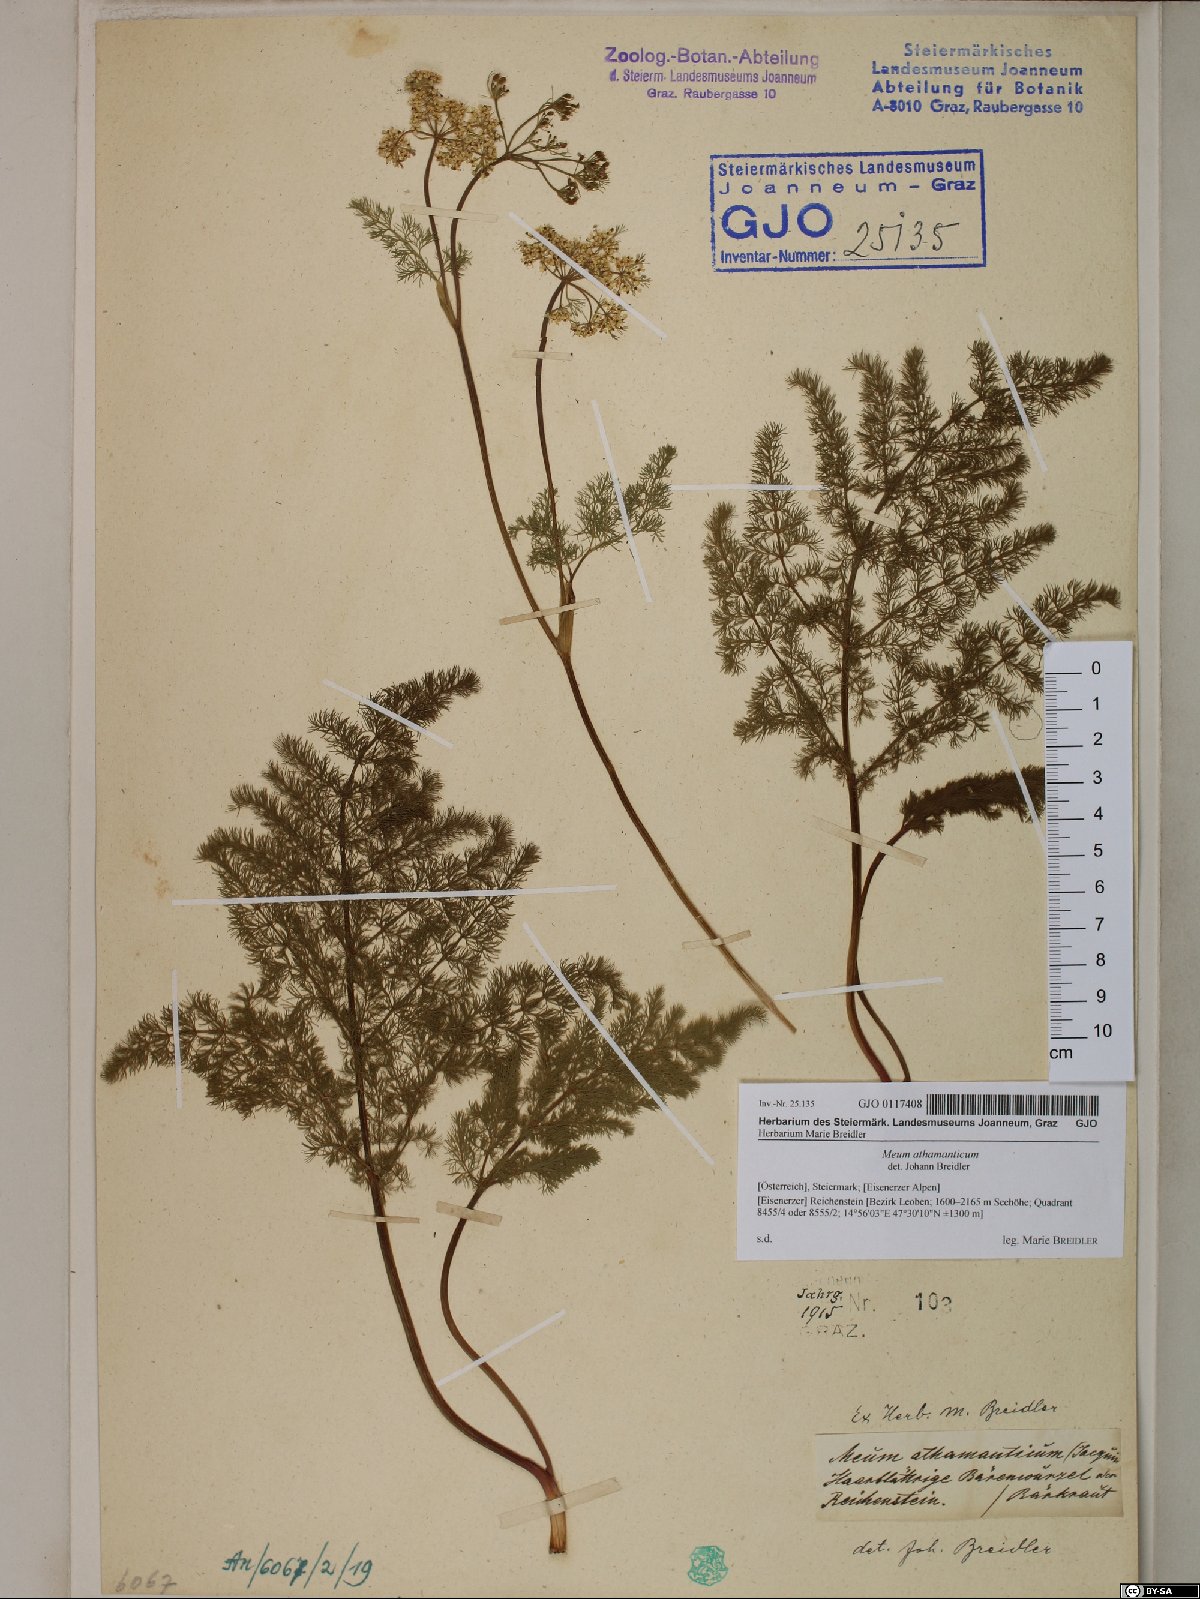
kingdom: Plantae
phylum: Tracheophyta
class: Magnoliopsida
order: Apiales
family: Apiaceae
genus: Meum
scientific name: Meum athamanticum
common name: Spignel
